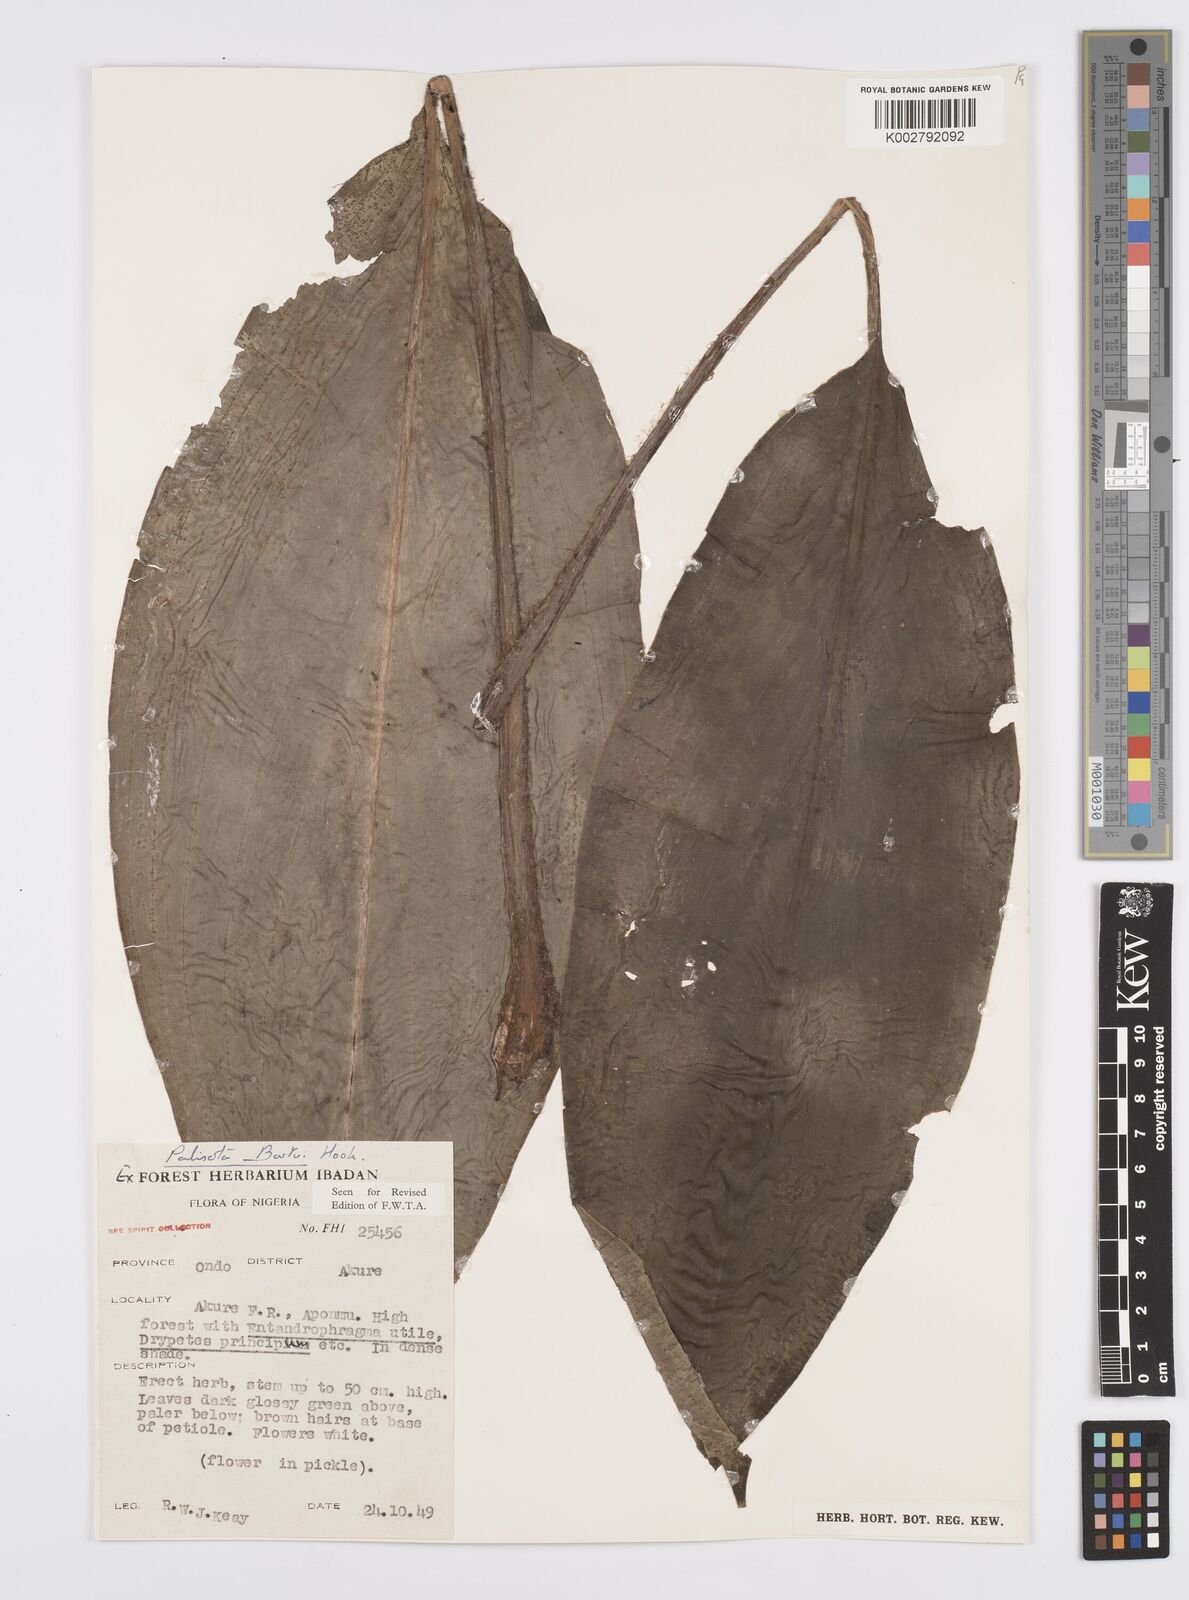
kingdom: Plantae
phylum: Tracheophyta
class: Liliopsida
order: Commelinales
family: Commelinaceae
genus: Palisota
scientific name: Palisota barteri
